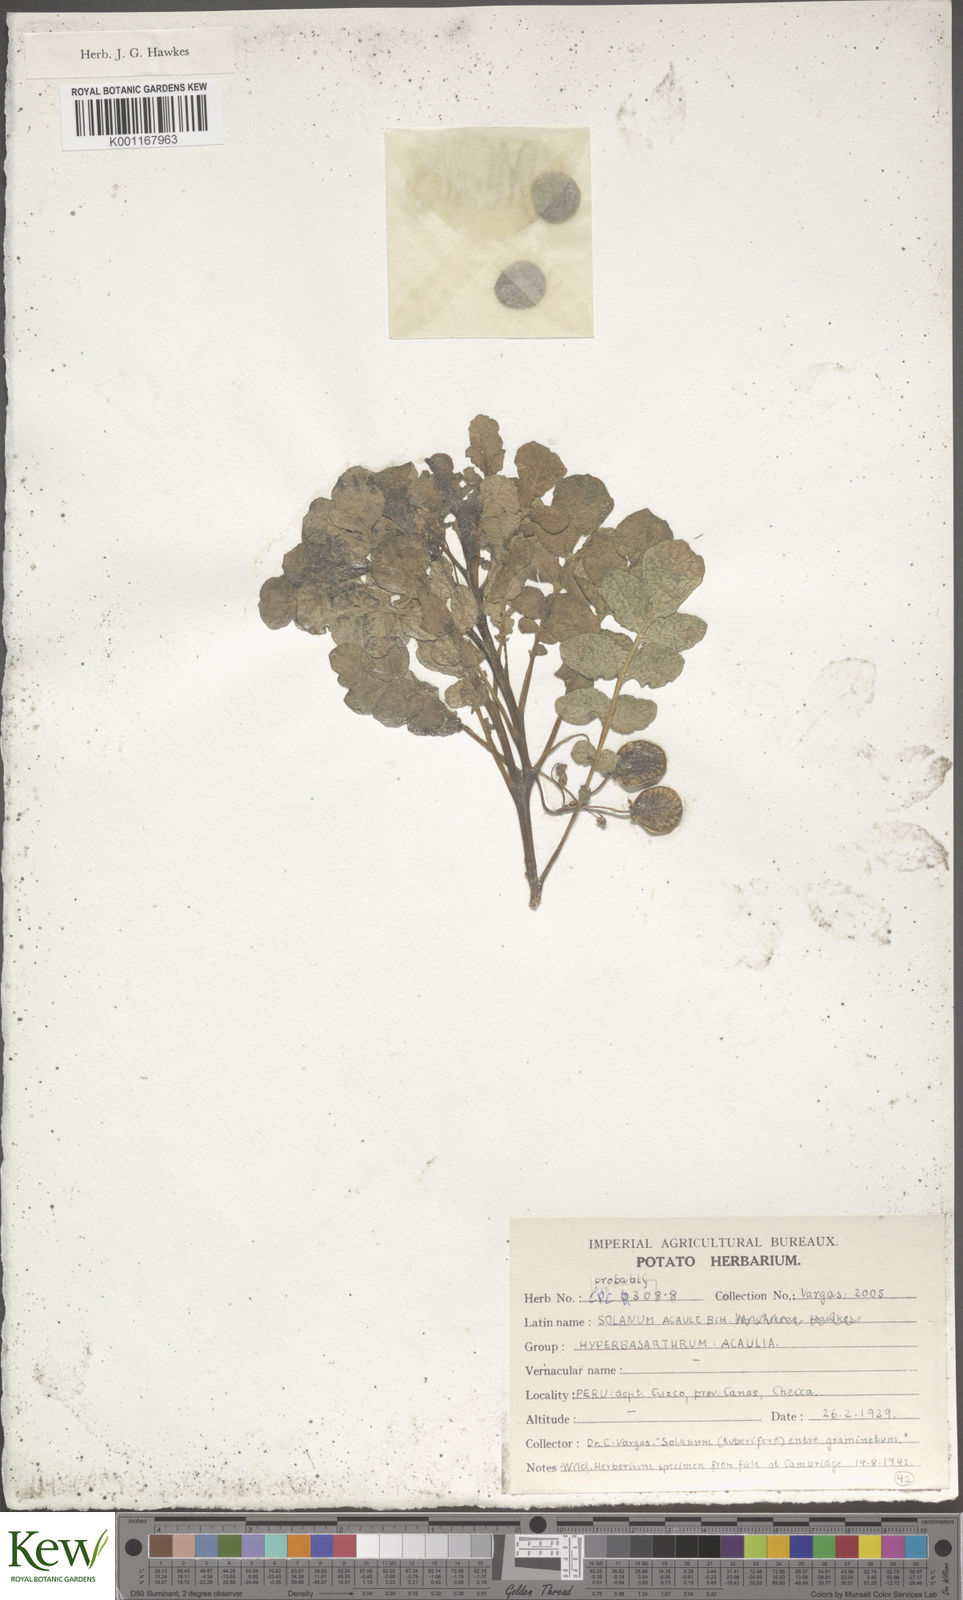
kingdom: Plantae
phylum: Tracheophyta
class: Magnoliopsida
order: Solanales
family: Solanaceae
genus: Solanum
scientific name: Solanum acaule
